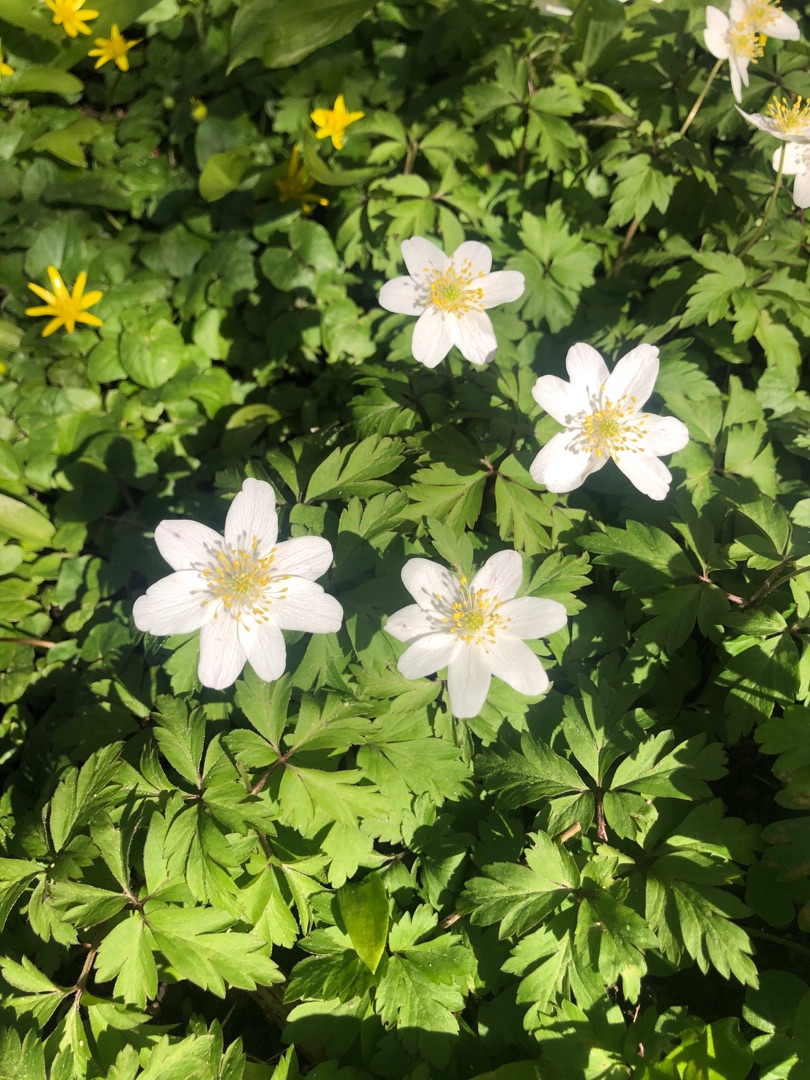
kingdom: Plantae
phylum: Tracheophyta
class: Magnoliopsida
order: Ranunculales
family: Ranunculaceae
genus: Anemone
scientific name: Anemone nemorosa
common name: Hvid anemone
